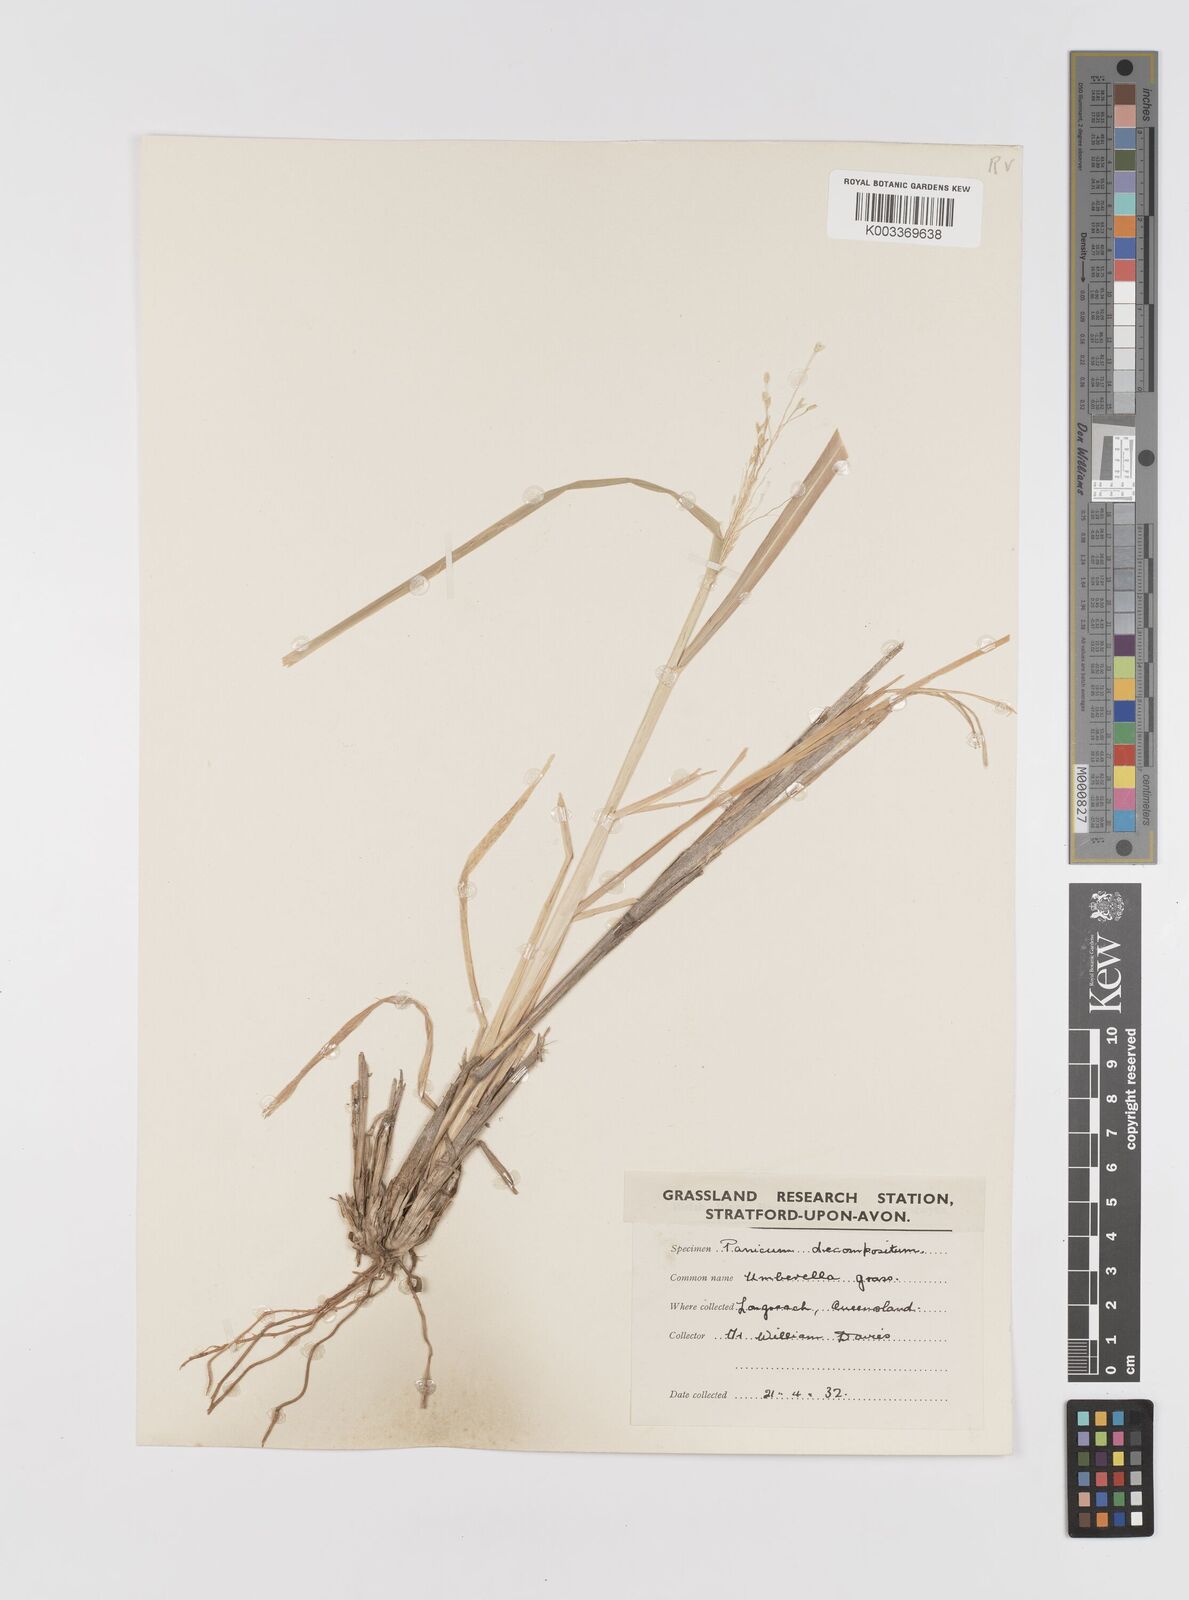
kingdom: Plantae
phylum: Tracheophyta
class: Liliopsida
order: Poales
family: Poaceae
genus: Panicum
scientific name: Panicum decompositum
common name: Australian millet
